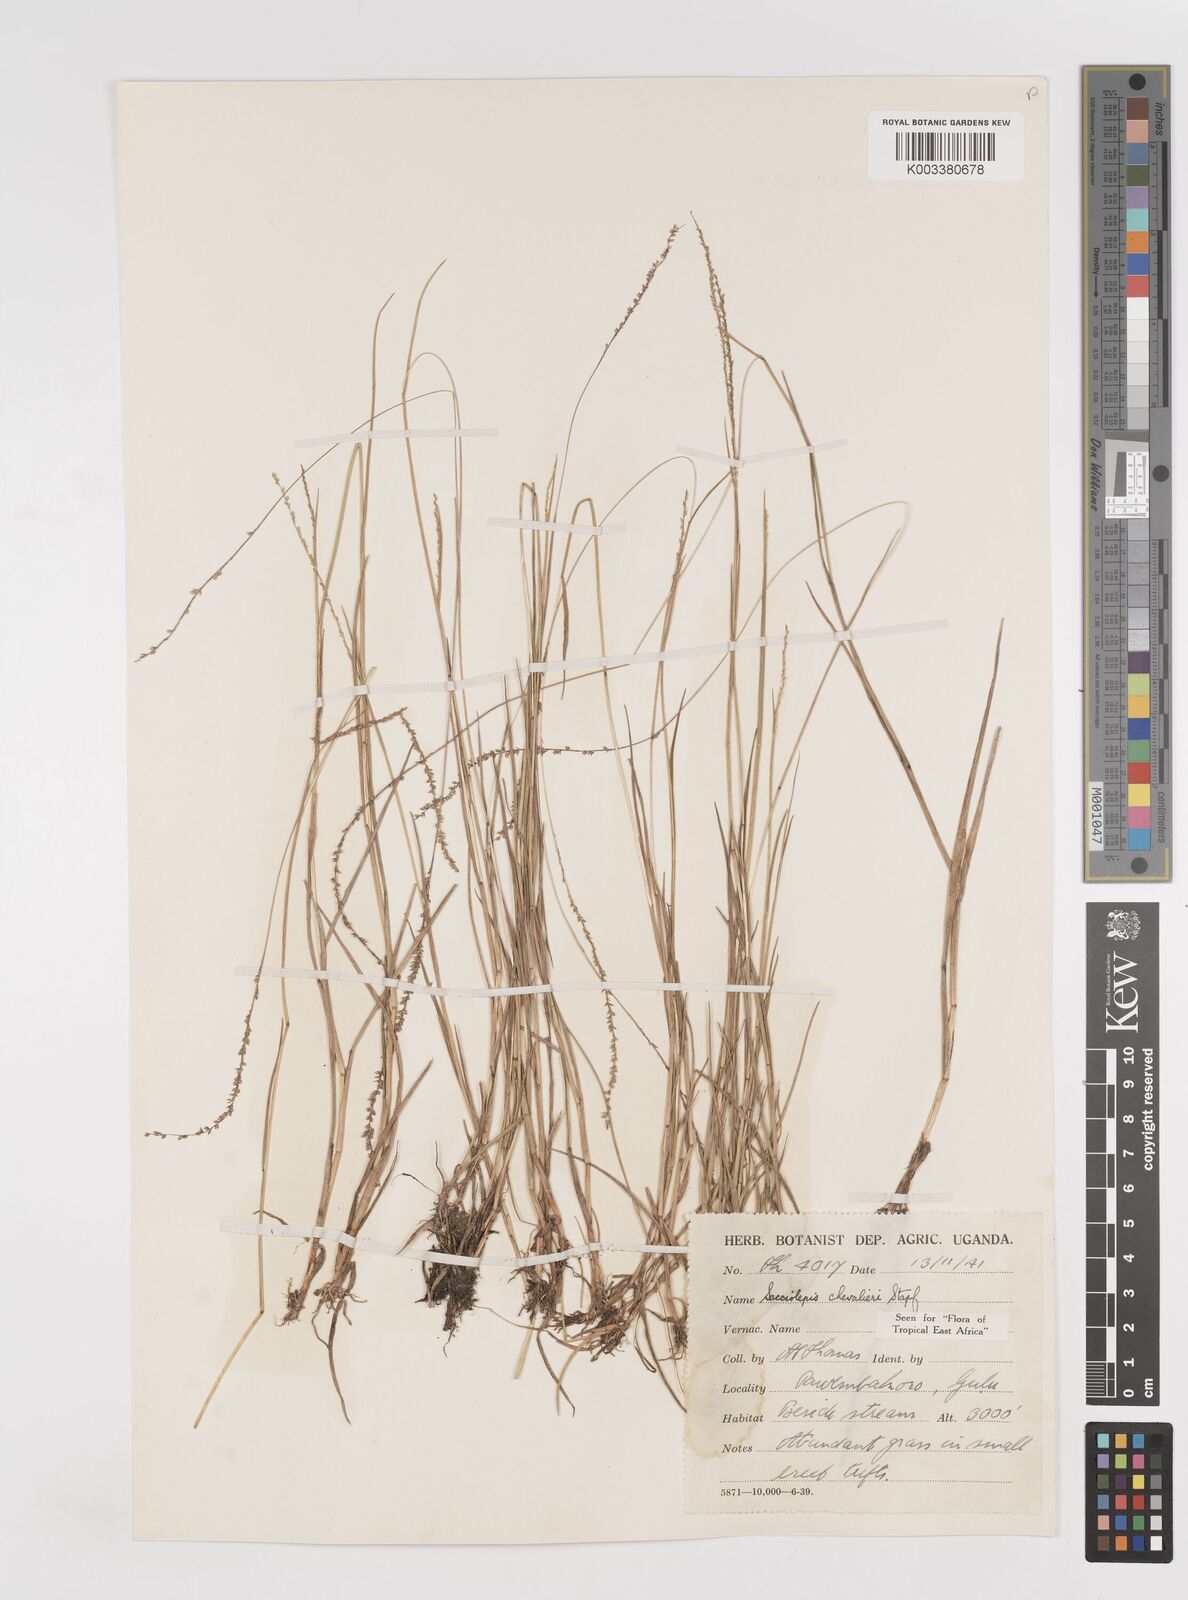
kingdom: Plantae
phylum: Tracheophyta
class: Liliopsida
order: Poales
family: Poaceae
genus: Sacciolepis
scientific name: Sacciolepis chevalieri
